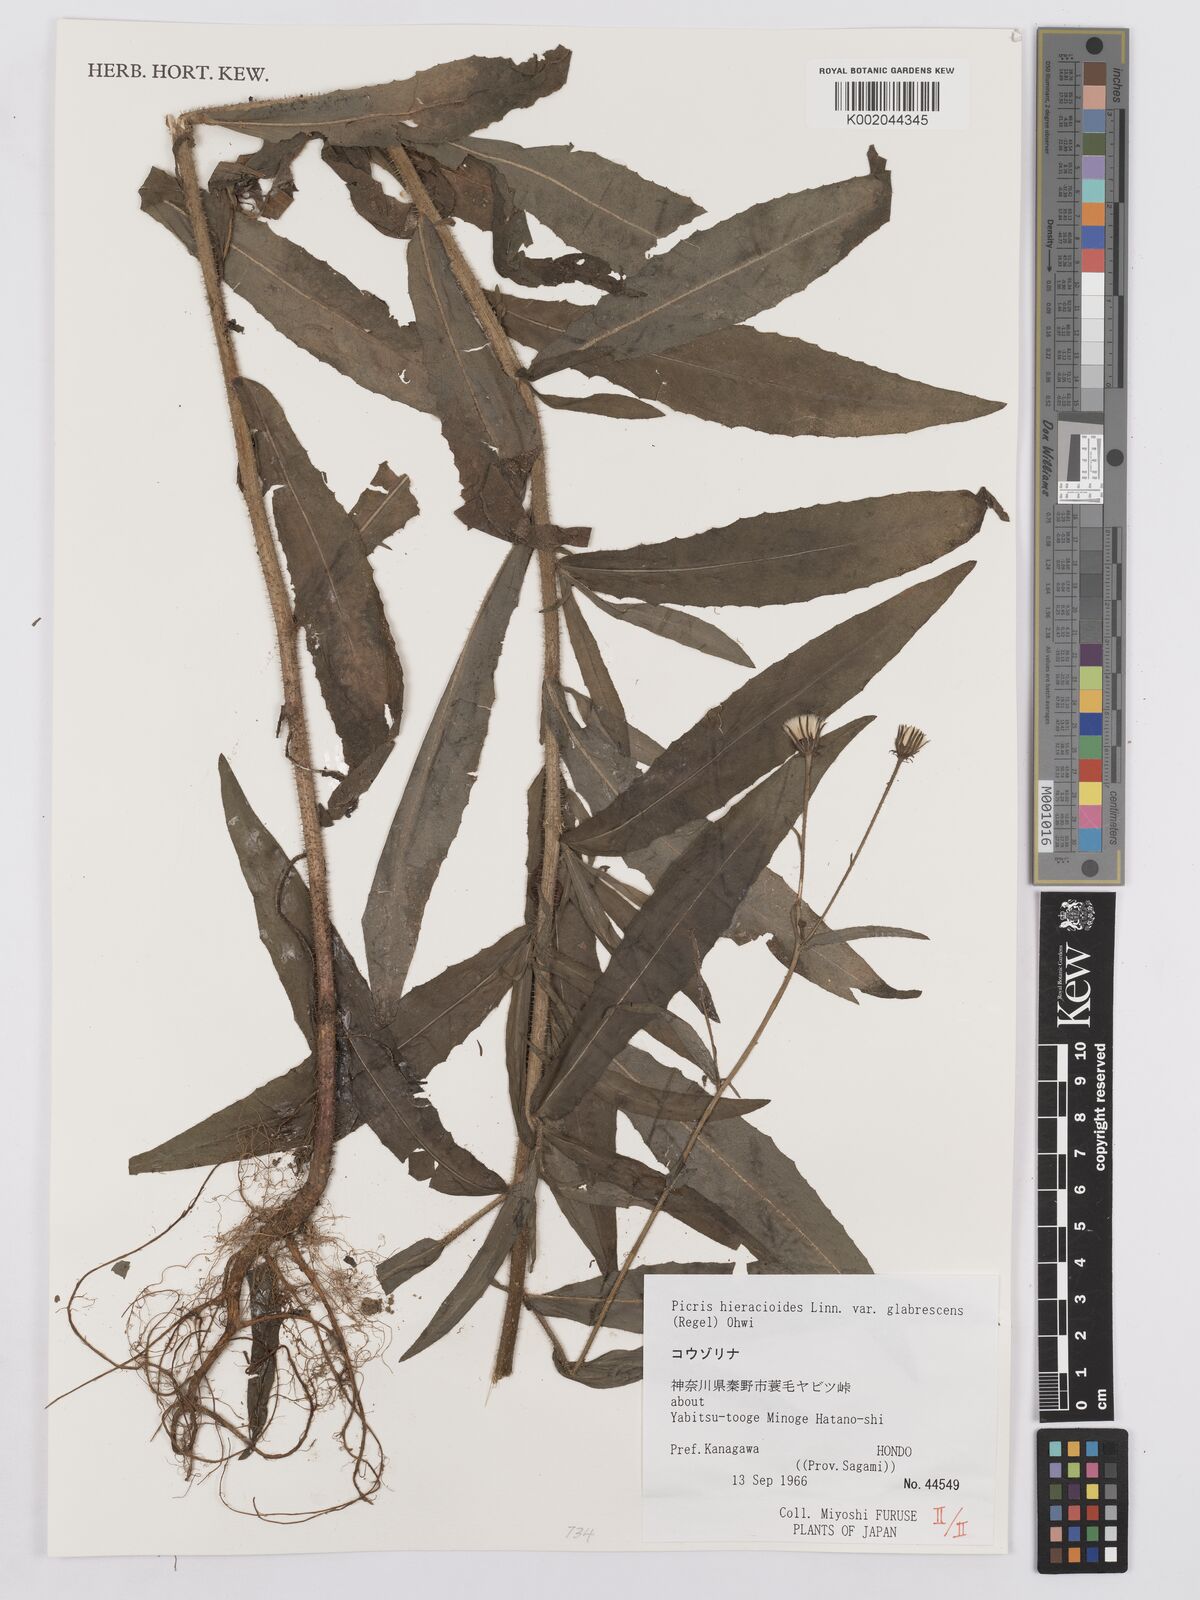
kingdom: Plantae
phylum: Tracheophyta
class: Magnoliopsida
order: Asterales
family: Asteraceae
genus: Picris
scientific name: Picris hieracioides
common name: Hawkweed oxtongue
